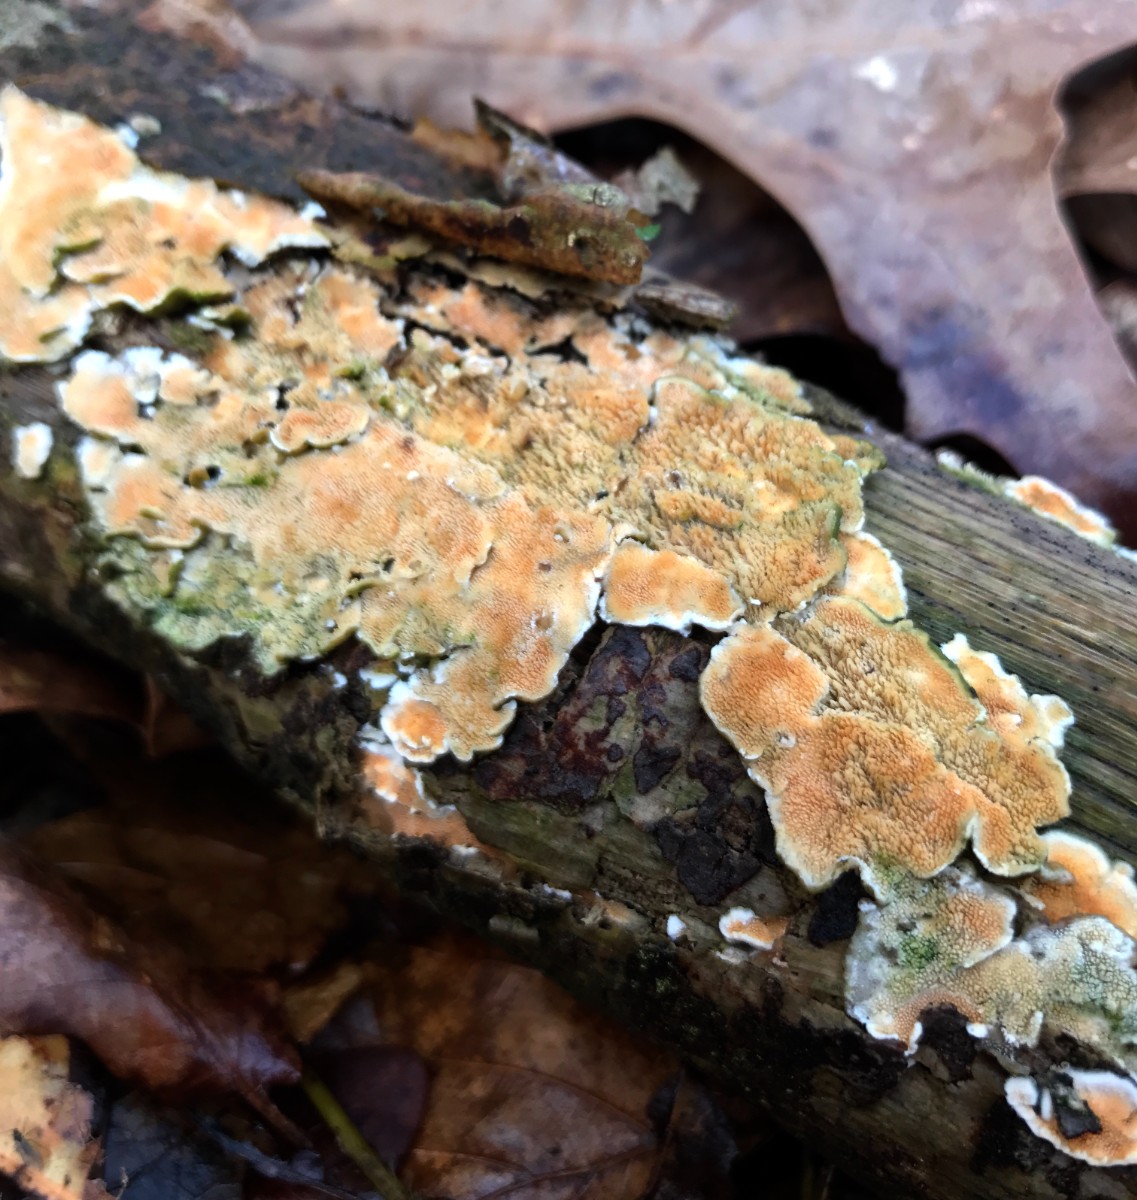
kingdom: Fungi
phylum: Basidiomycota
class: Agaricomycetes
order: Polyporales
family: Steccherinaceae
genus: Steccherinum
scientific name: Steccherinum ochraceum
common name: almindelig skønpig
